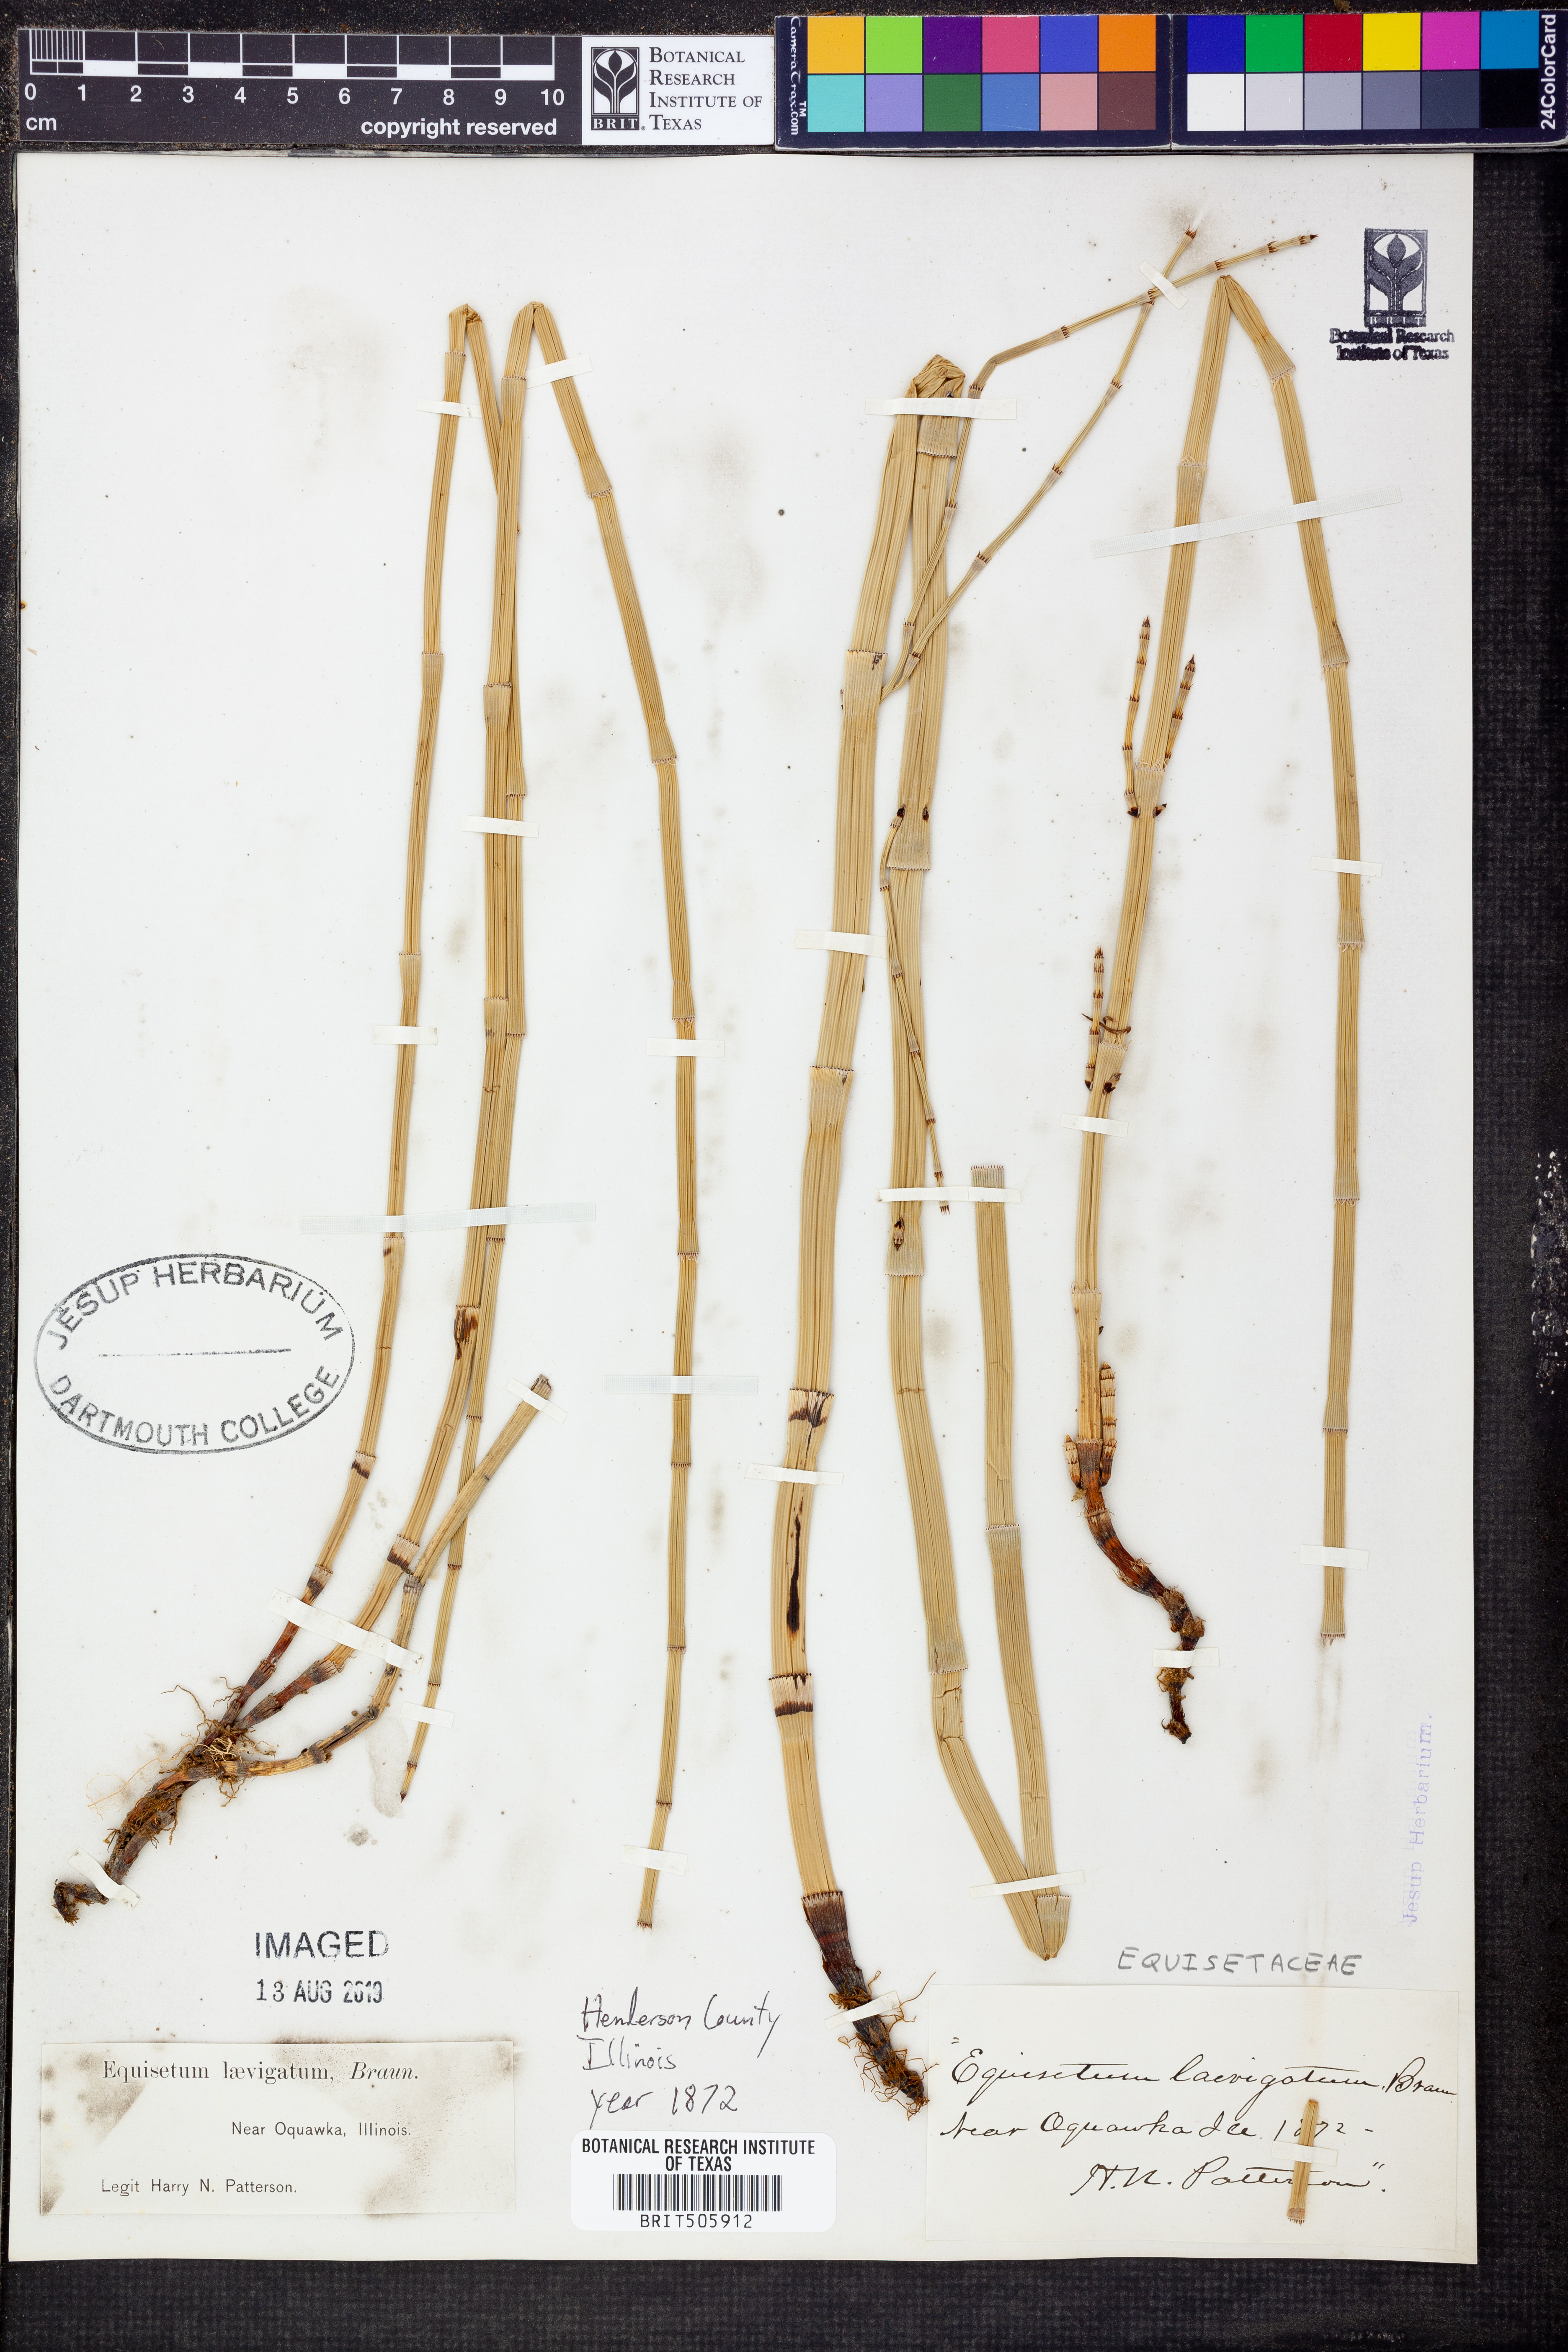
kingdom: Plantae
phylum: Tracheophyta
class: Polypodiopsida
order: Equisetales
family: Equisetaceae
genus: Equisetum
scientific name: Equisetum laevigatum
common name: Smooth scouring-rush
